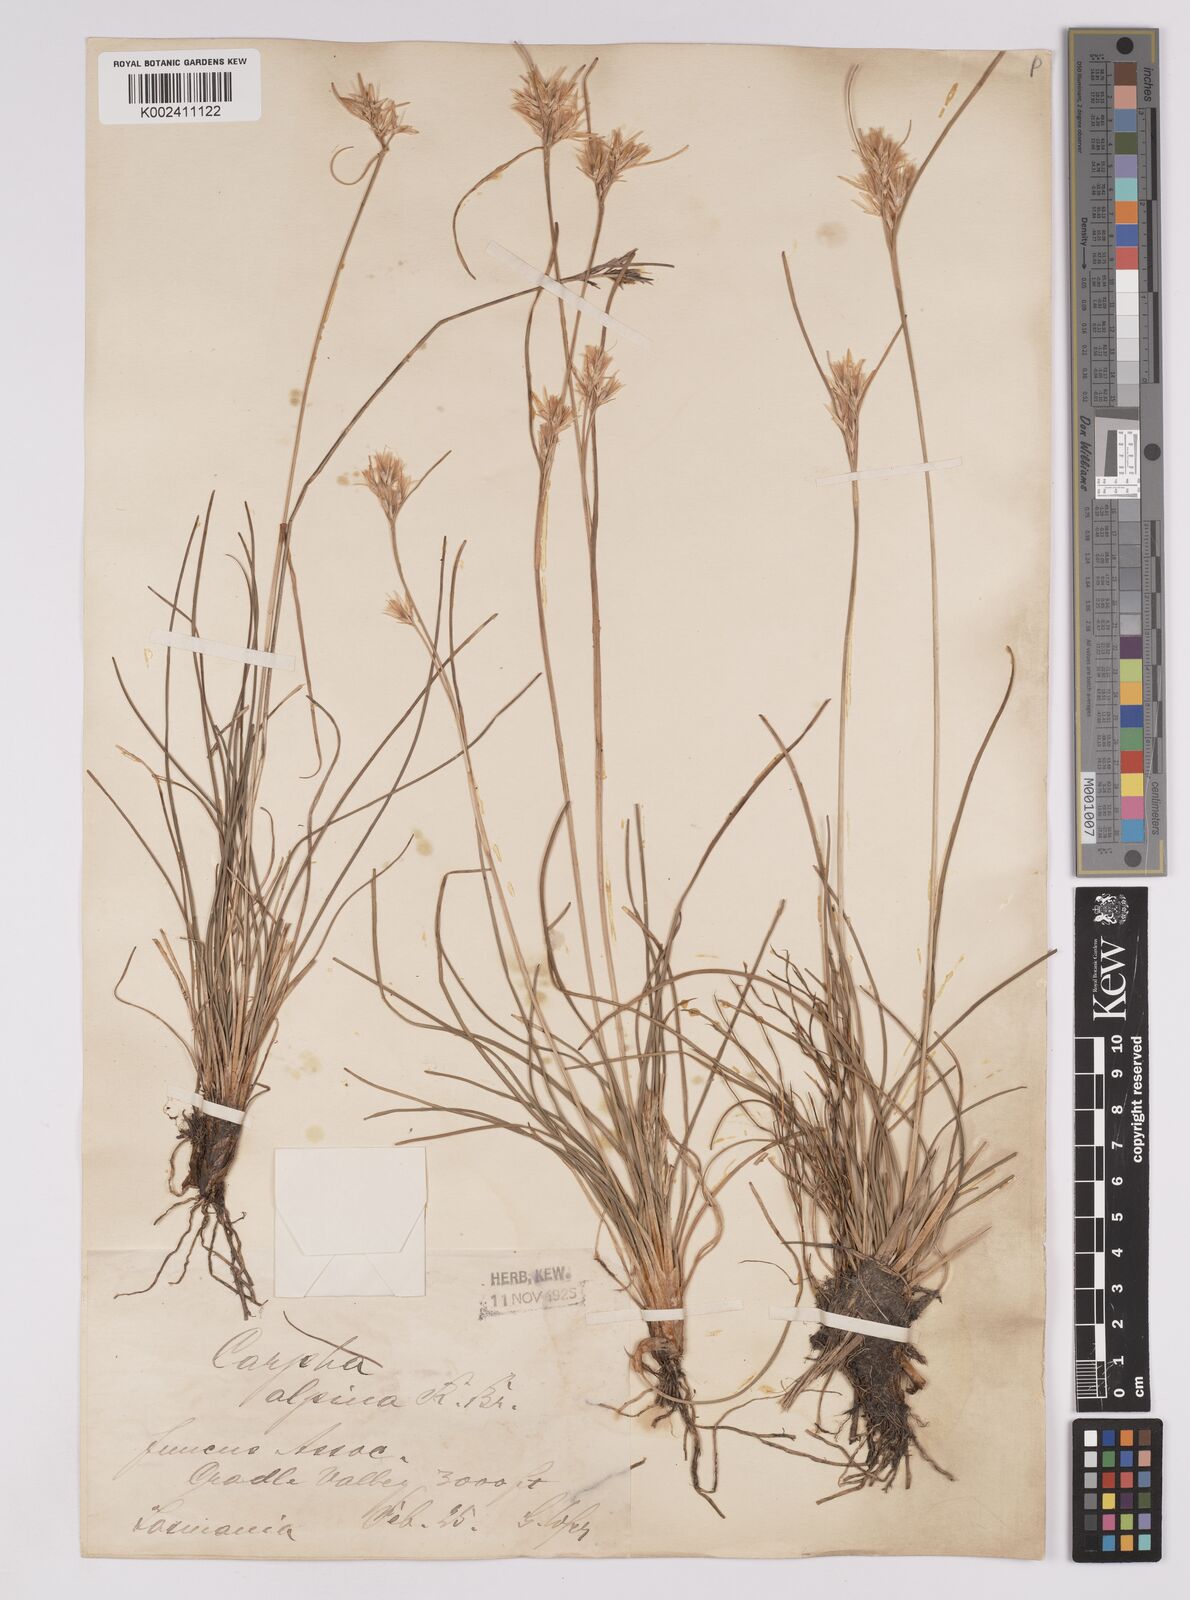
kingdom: Plantae
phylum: Tracheophyta
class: Liliopsida
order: Poales
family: Cyperaceae
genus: Carpha
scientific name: Carpha alpina
